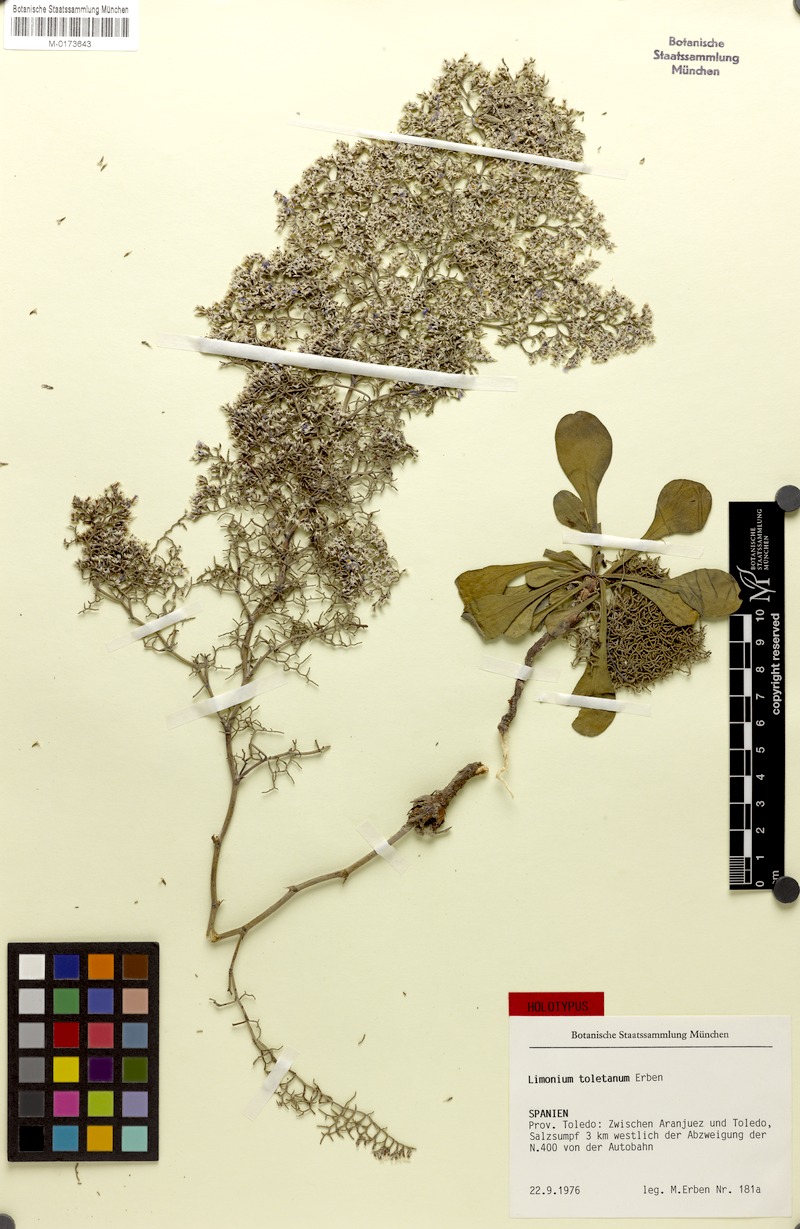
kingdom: Plantae
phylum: Tracheophyta
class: Magnoliopsida
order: Caryophyllales
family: Plumbaginaceae
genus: Limonium
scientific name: Limonium toletanum
